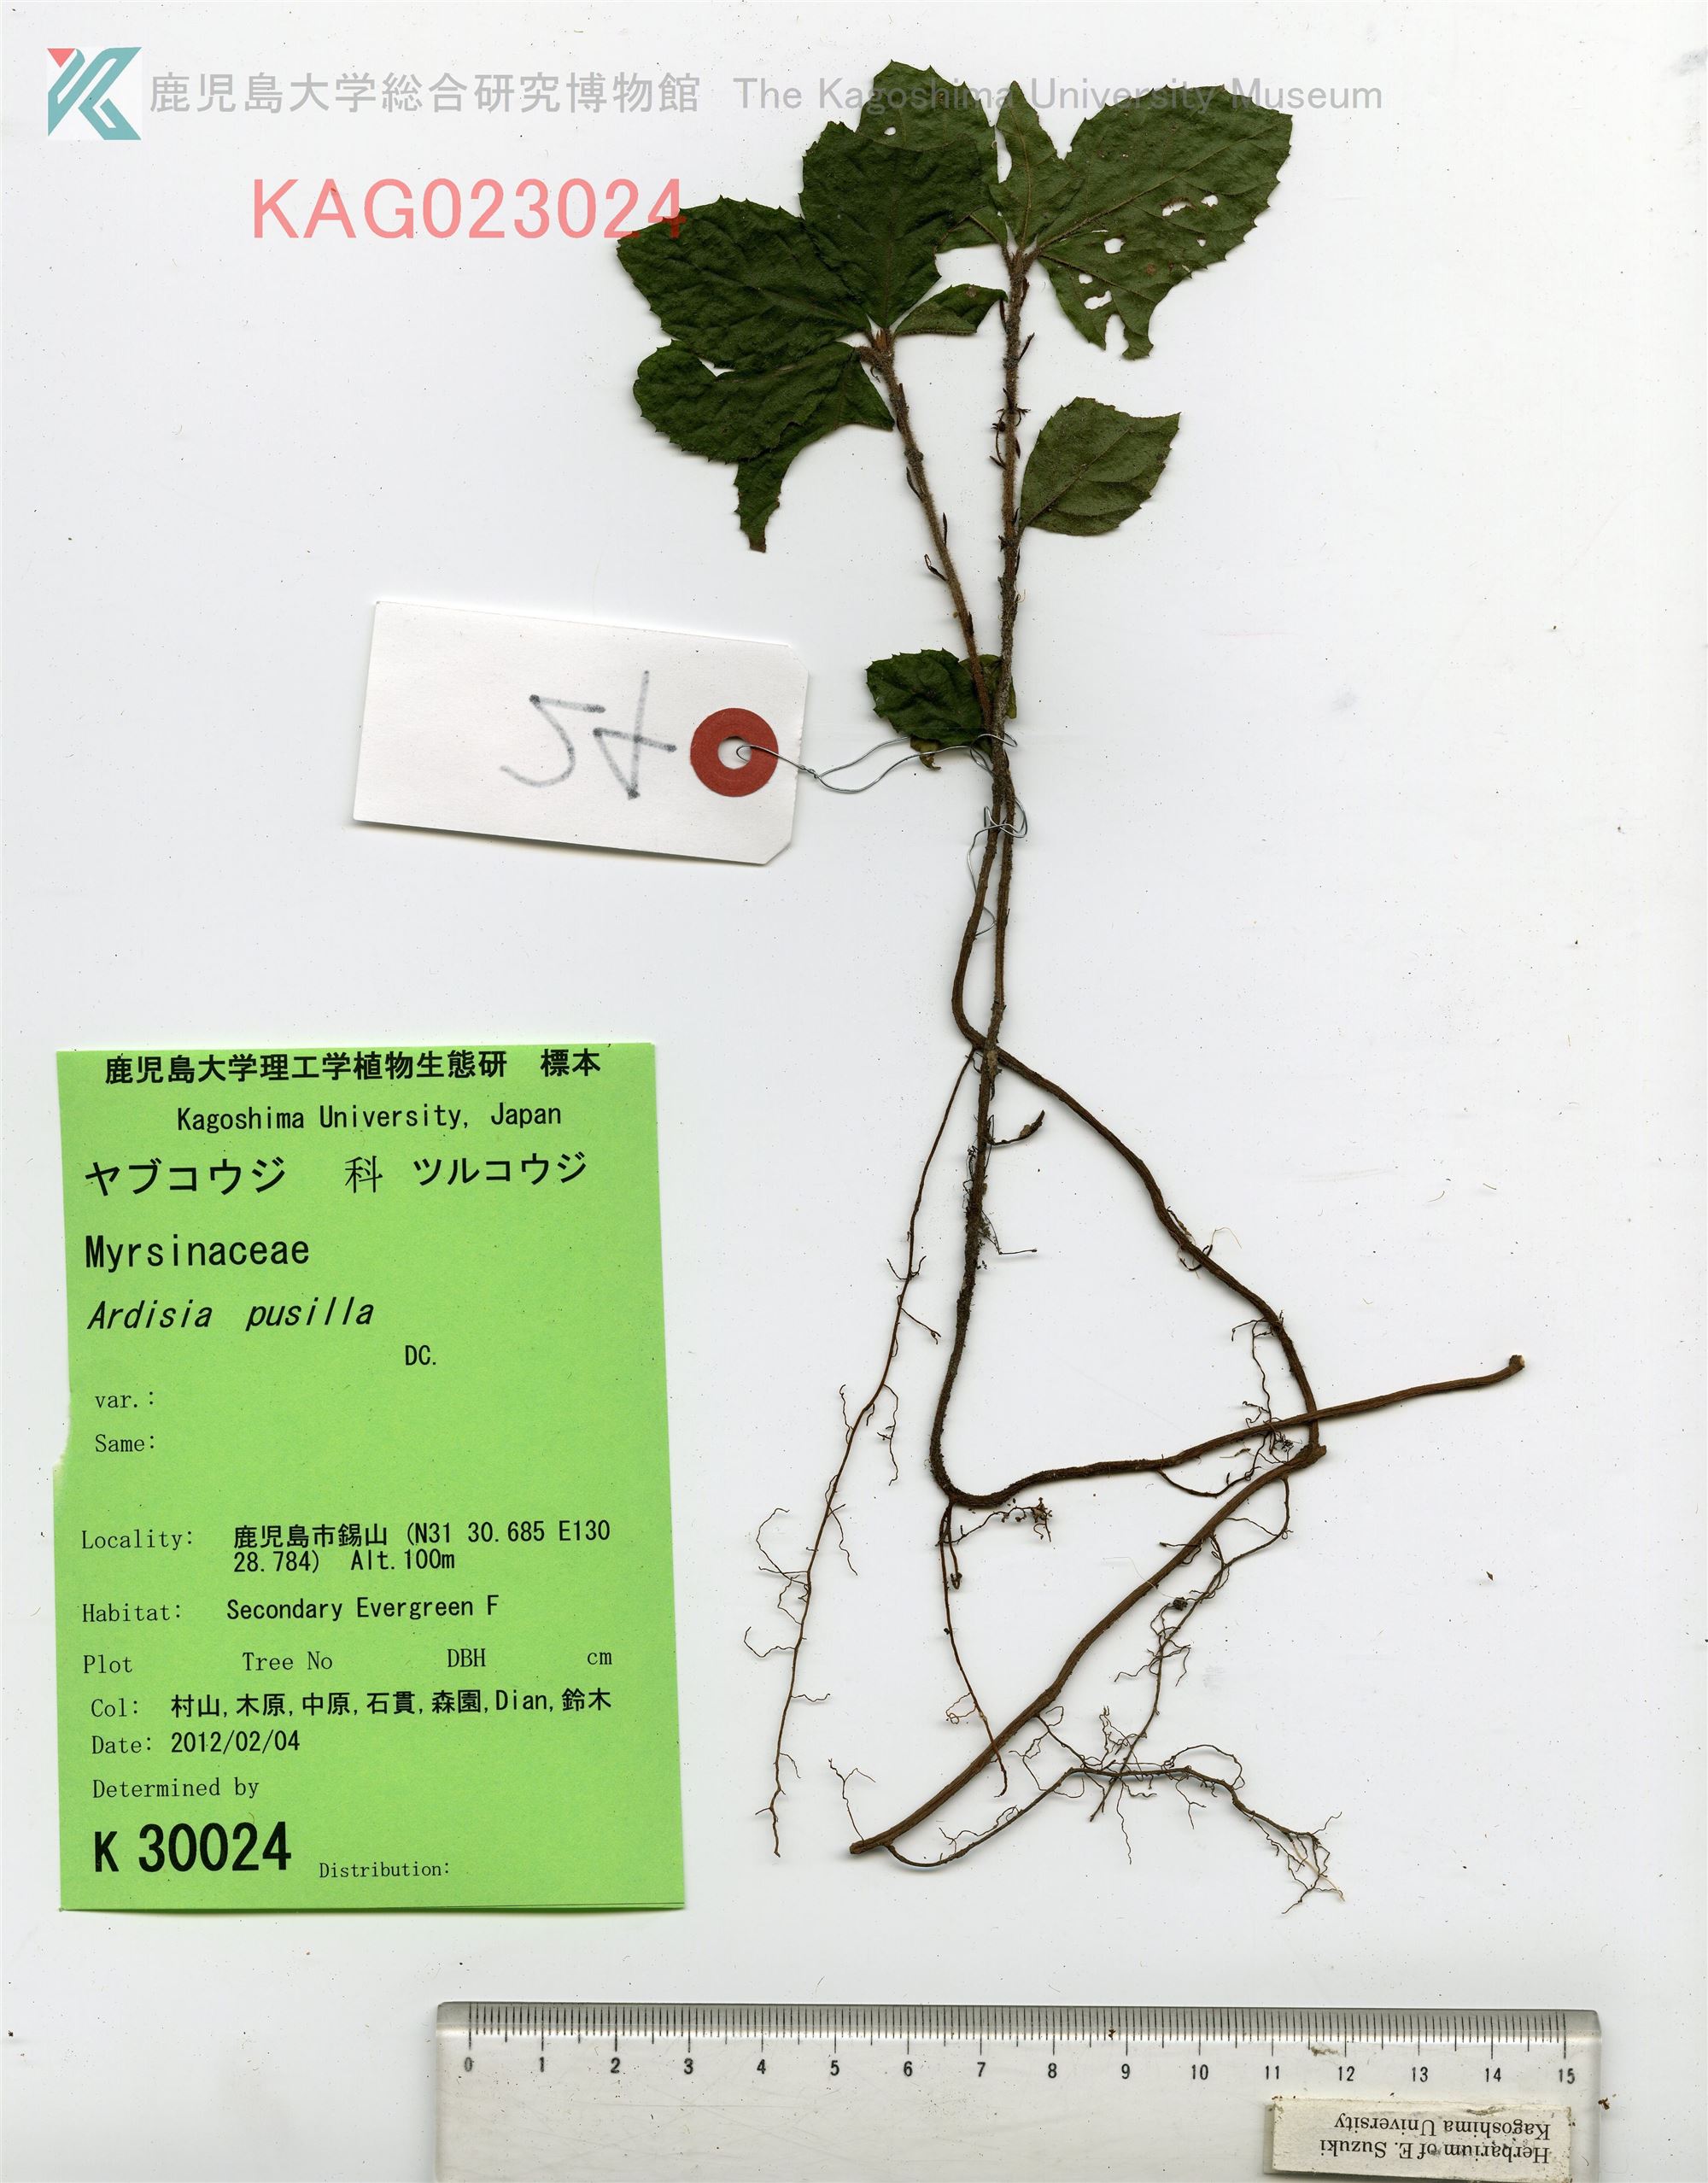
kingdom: Plantae
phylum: Tracheophyta
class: Magnoliopsida
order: Ericales
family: Primulaceae
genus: Ardisia
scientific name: Ardisia pusilla
